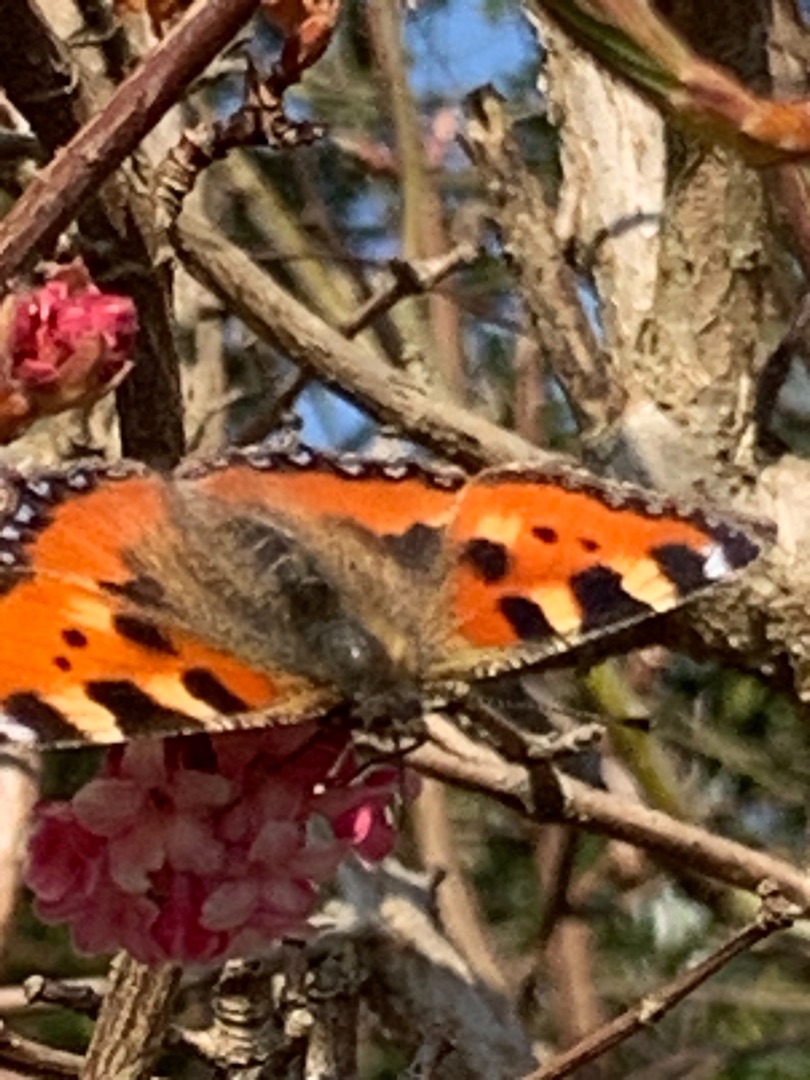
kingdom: Animalia
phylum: Arthropoda
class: Insecta
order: Lepidoptera
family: Nymphalidae
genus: Aglais
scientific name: Aglais urticae
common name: Nældens takvinge
